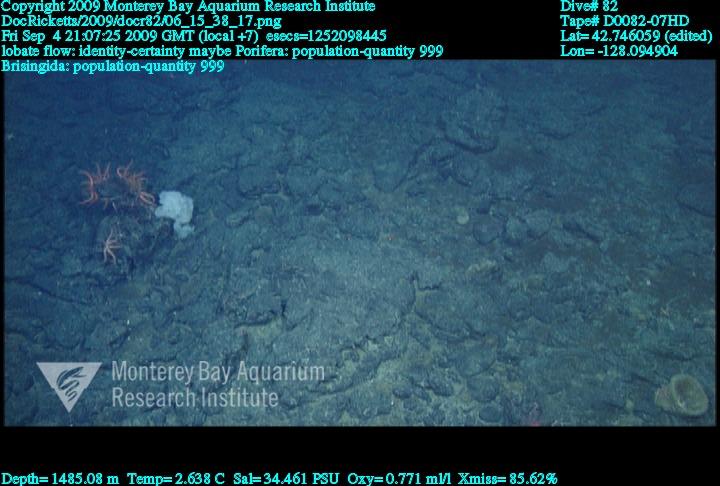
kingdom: Animalia
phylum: Porifera
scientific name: Porifera
